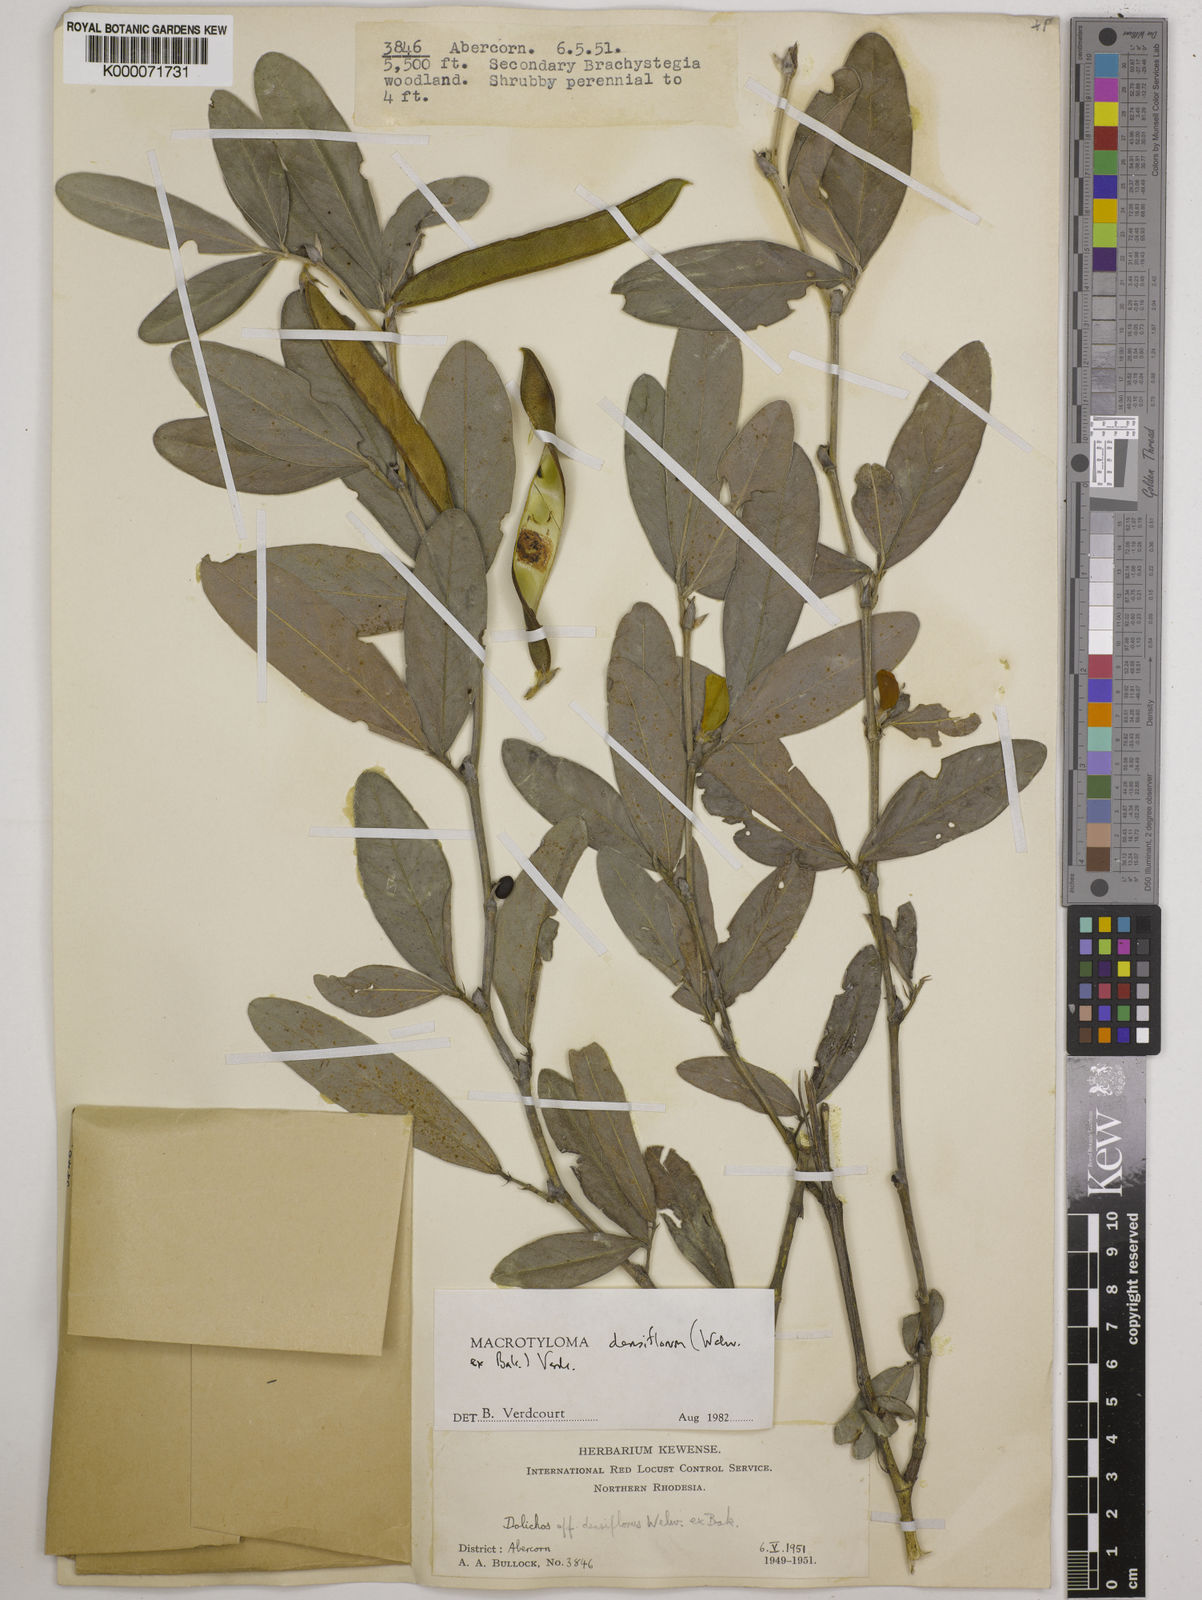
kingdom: Plantae
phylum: Tracheophyta
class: Magnoliopsida
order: Fabales
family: Fabaceae
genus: Macrotyloma
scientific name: Macrotyloma densiflorum
